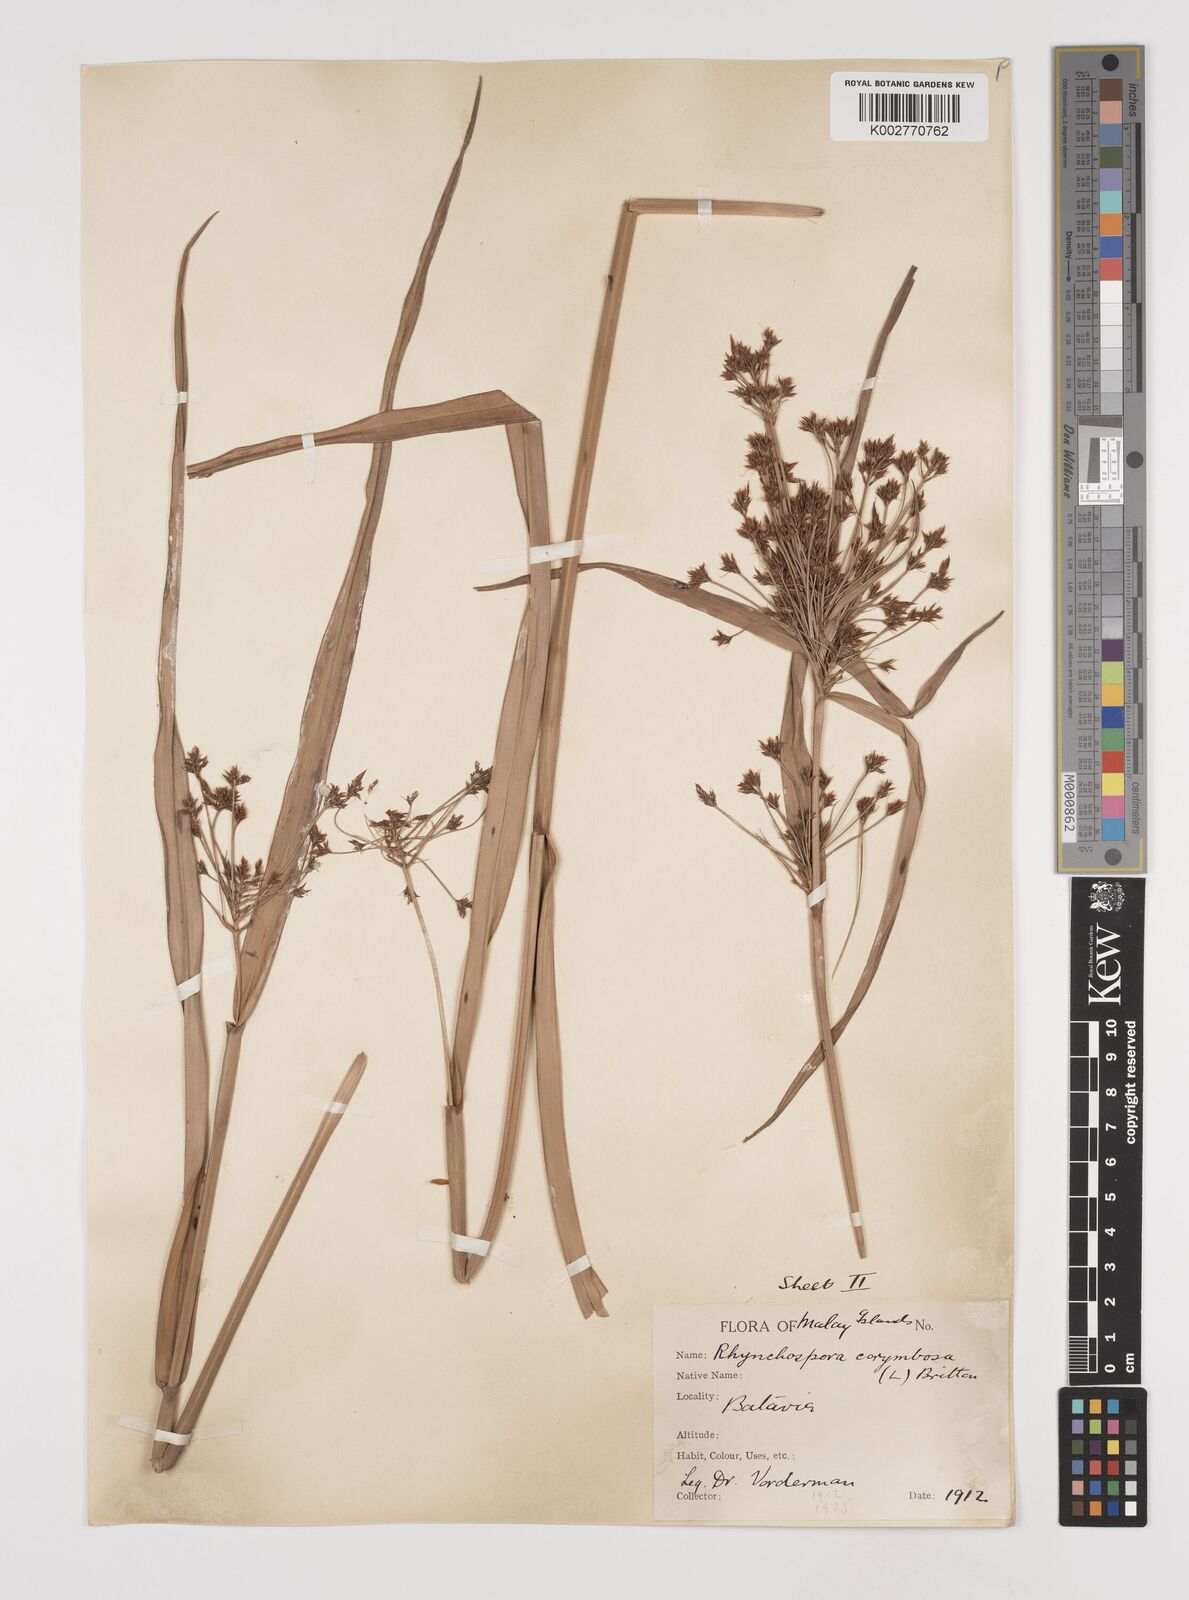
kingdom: Plantae
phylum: Tracheophyta
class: Liliopsida
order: Poales
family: Cyperaceae
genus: Rhynchospora
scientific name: Rhynchospora corymbosa
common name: Golden beak sedge
